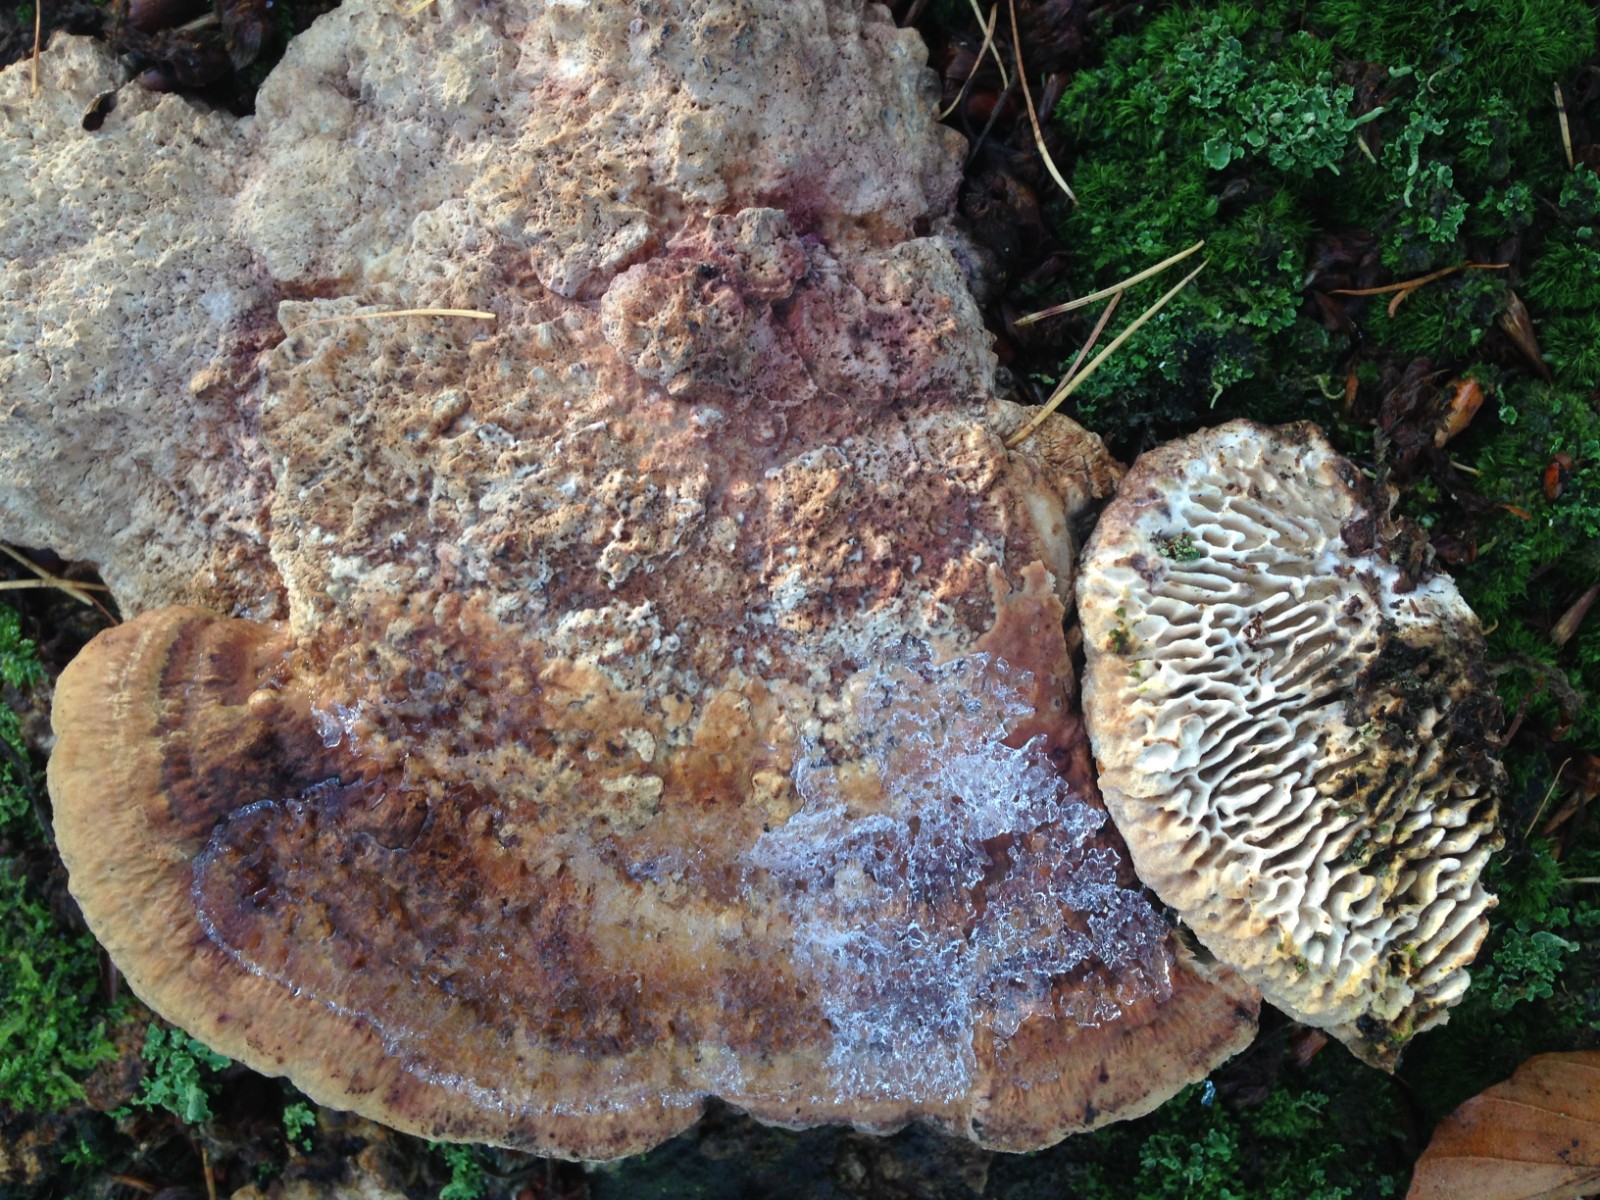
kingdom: Fungi
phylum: Basidiomycota
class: Agaricomycetes
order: Polyporales
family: Fomitopsidaceae
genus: Daedalea
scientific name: Daedalea quercina
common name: ege-labyrintsvamp
